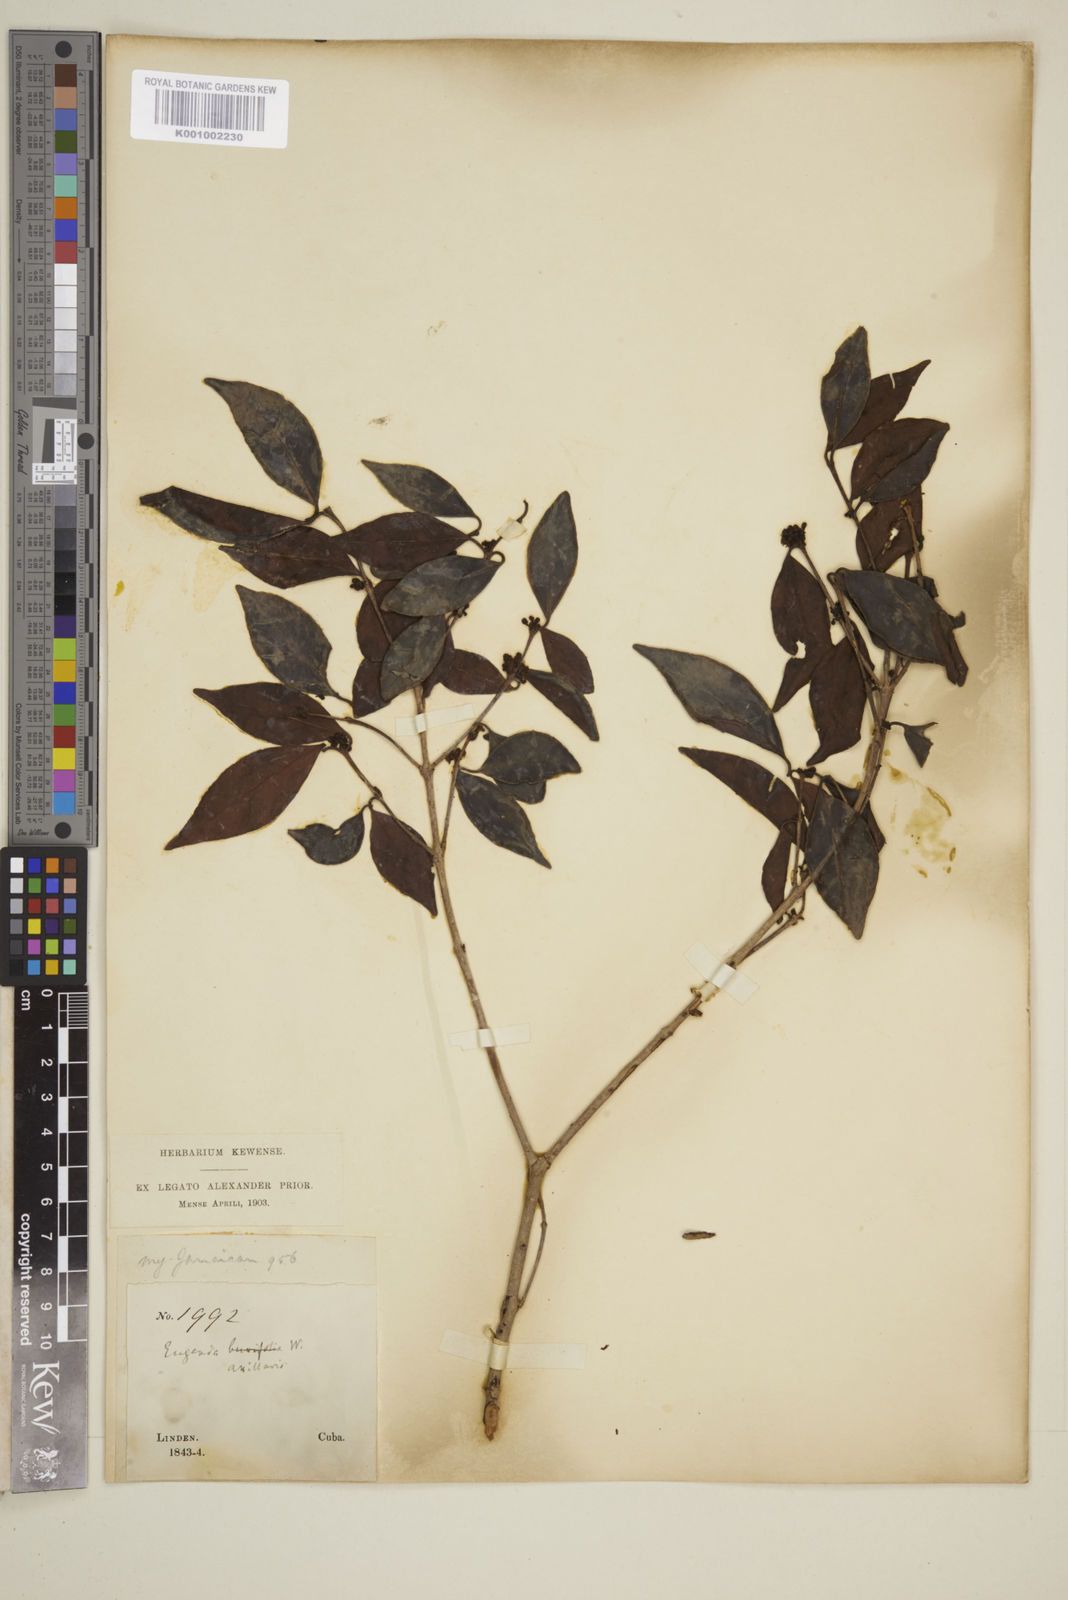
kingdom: Plantae
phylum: Tracheophyta
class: Magnoliopsida
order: Myrtales
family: Myrtaceae
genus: Eugenia
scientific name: Eugenia axillaris
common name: Choaky berry
